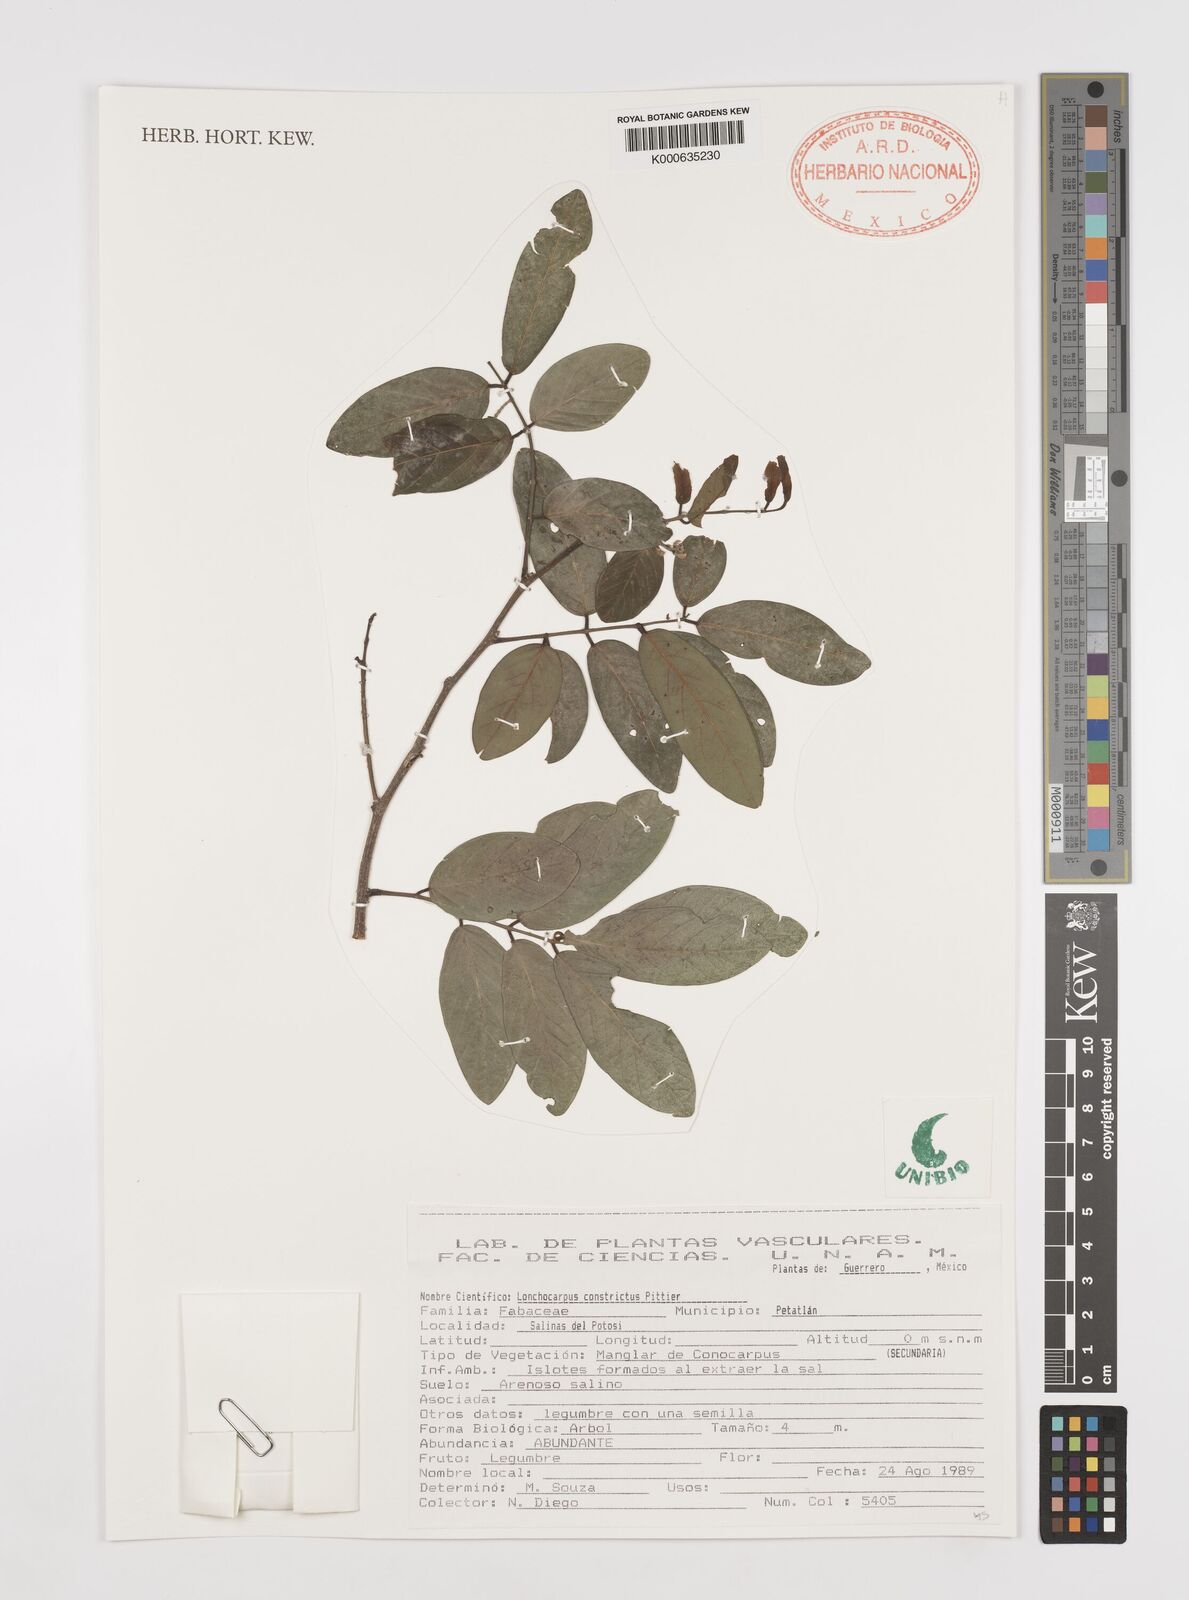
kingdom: Plantae
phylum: Tracheophyta
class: Magnoliopsida
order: Fabales
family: Fabaceae
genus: Lonchocarpus
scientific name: Lonchocarpus constrictus
